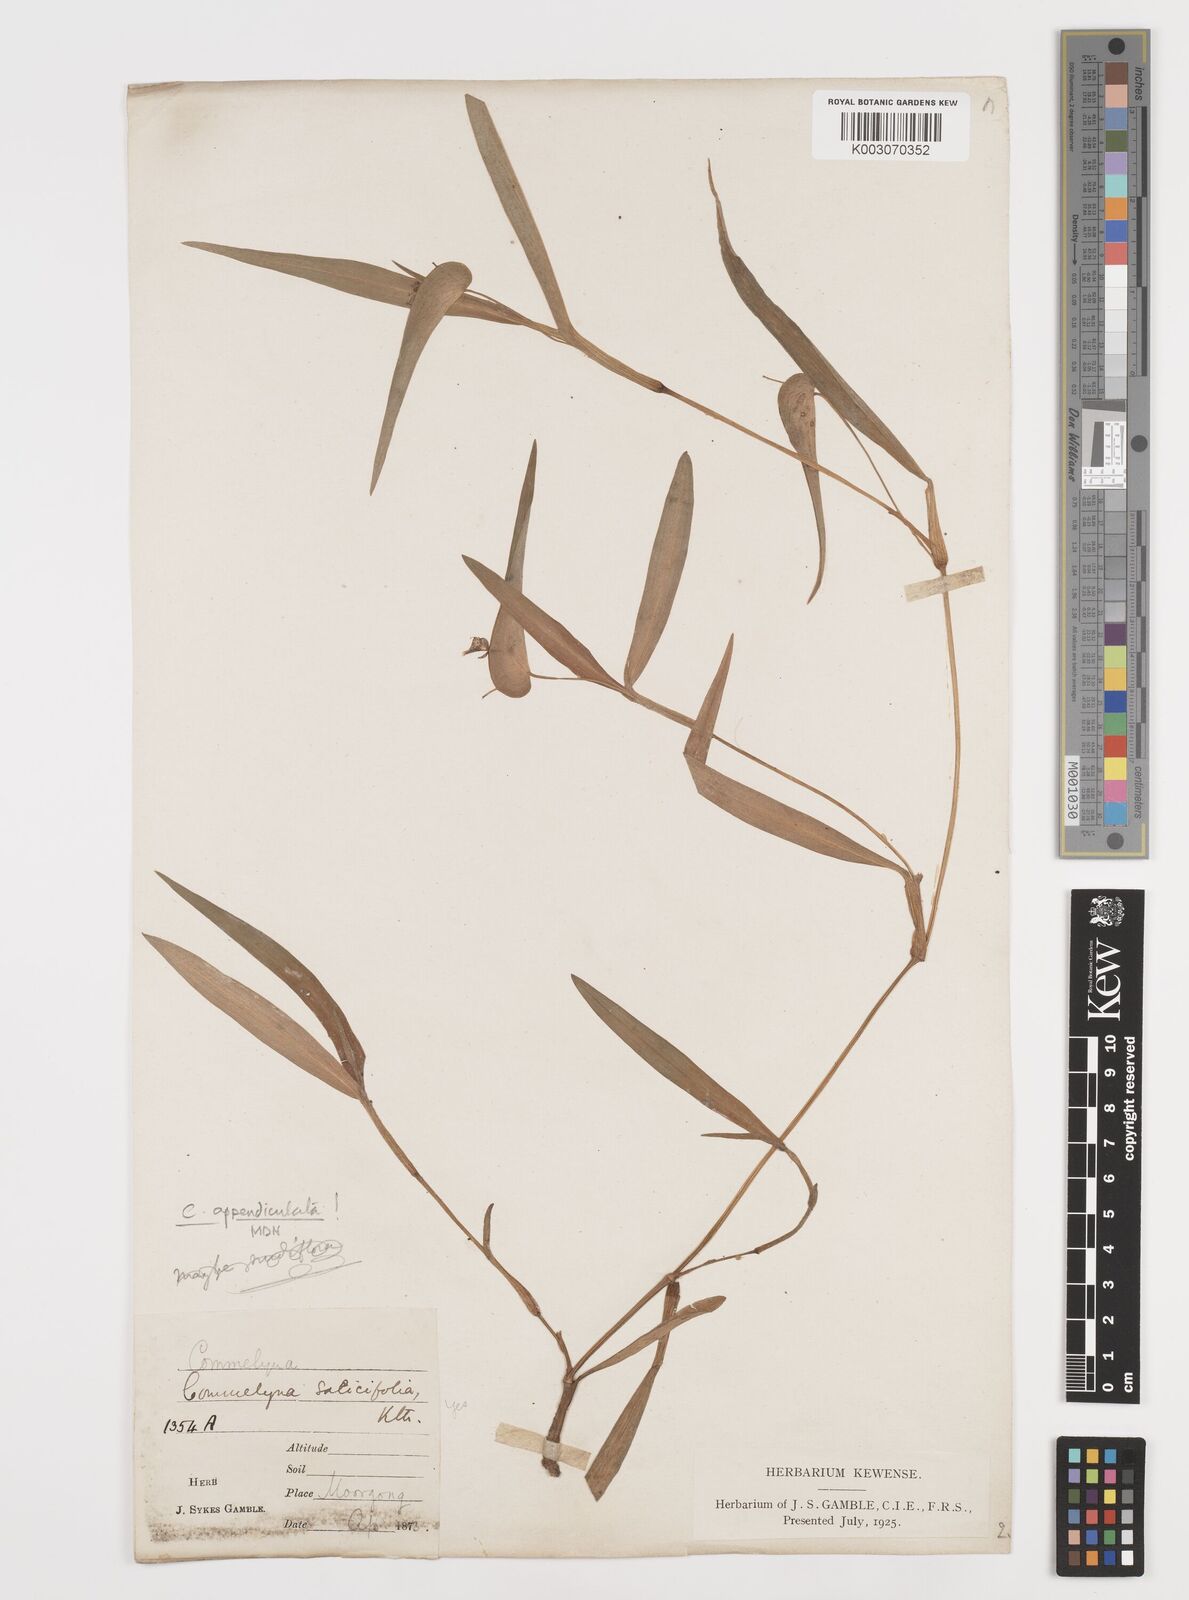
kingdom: Plantae
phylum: Tracheophyta
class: Liliopsida
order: Commelinales
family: Commelinaceae
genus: Commelina
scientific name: Commelina appendiculata
